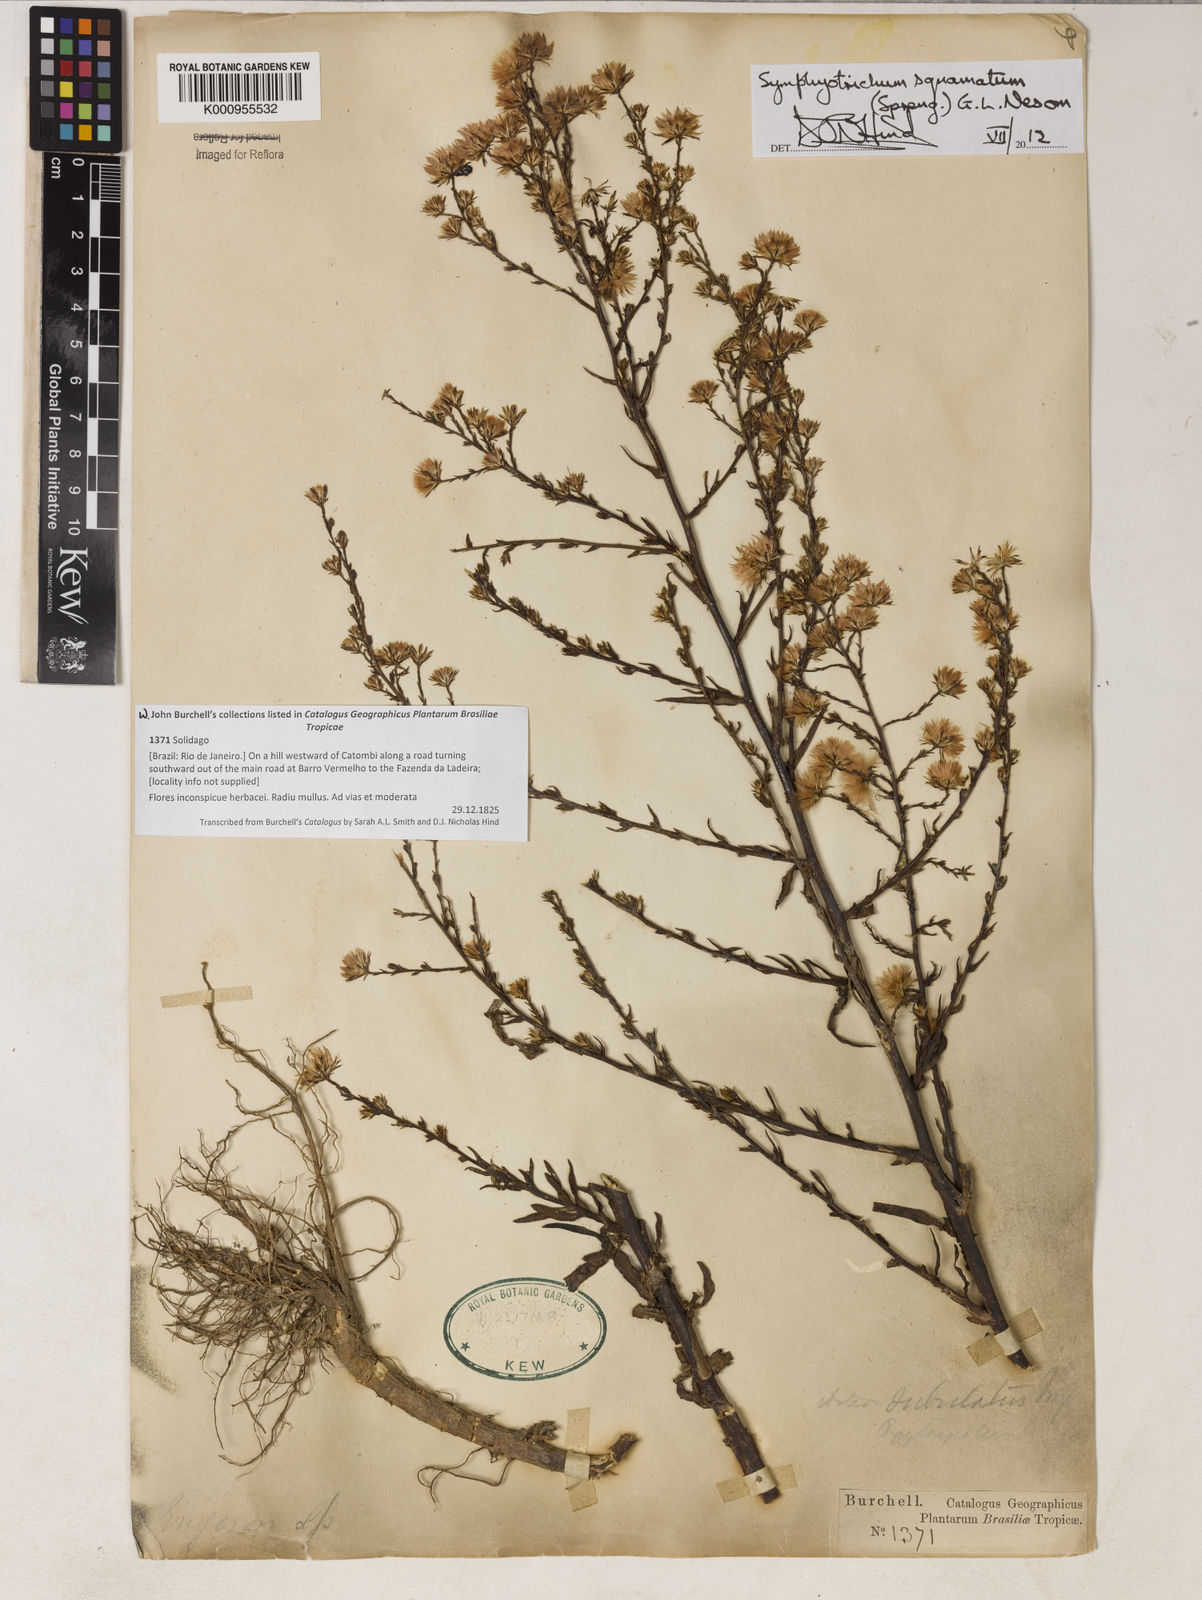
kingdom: Plantae
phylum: Tracheophyta
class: Magnoliopsida
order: Asterales
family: Asteraceae
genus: Symphyotrichum
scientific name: Symphyotrichum squamatum
